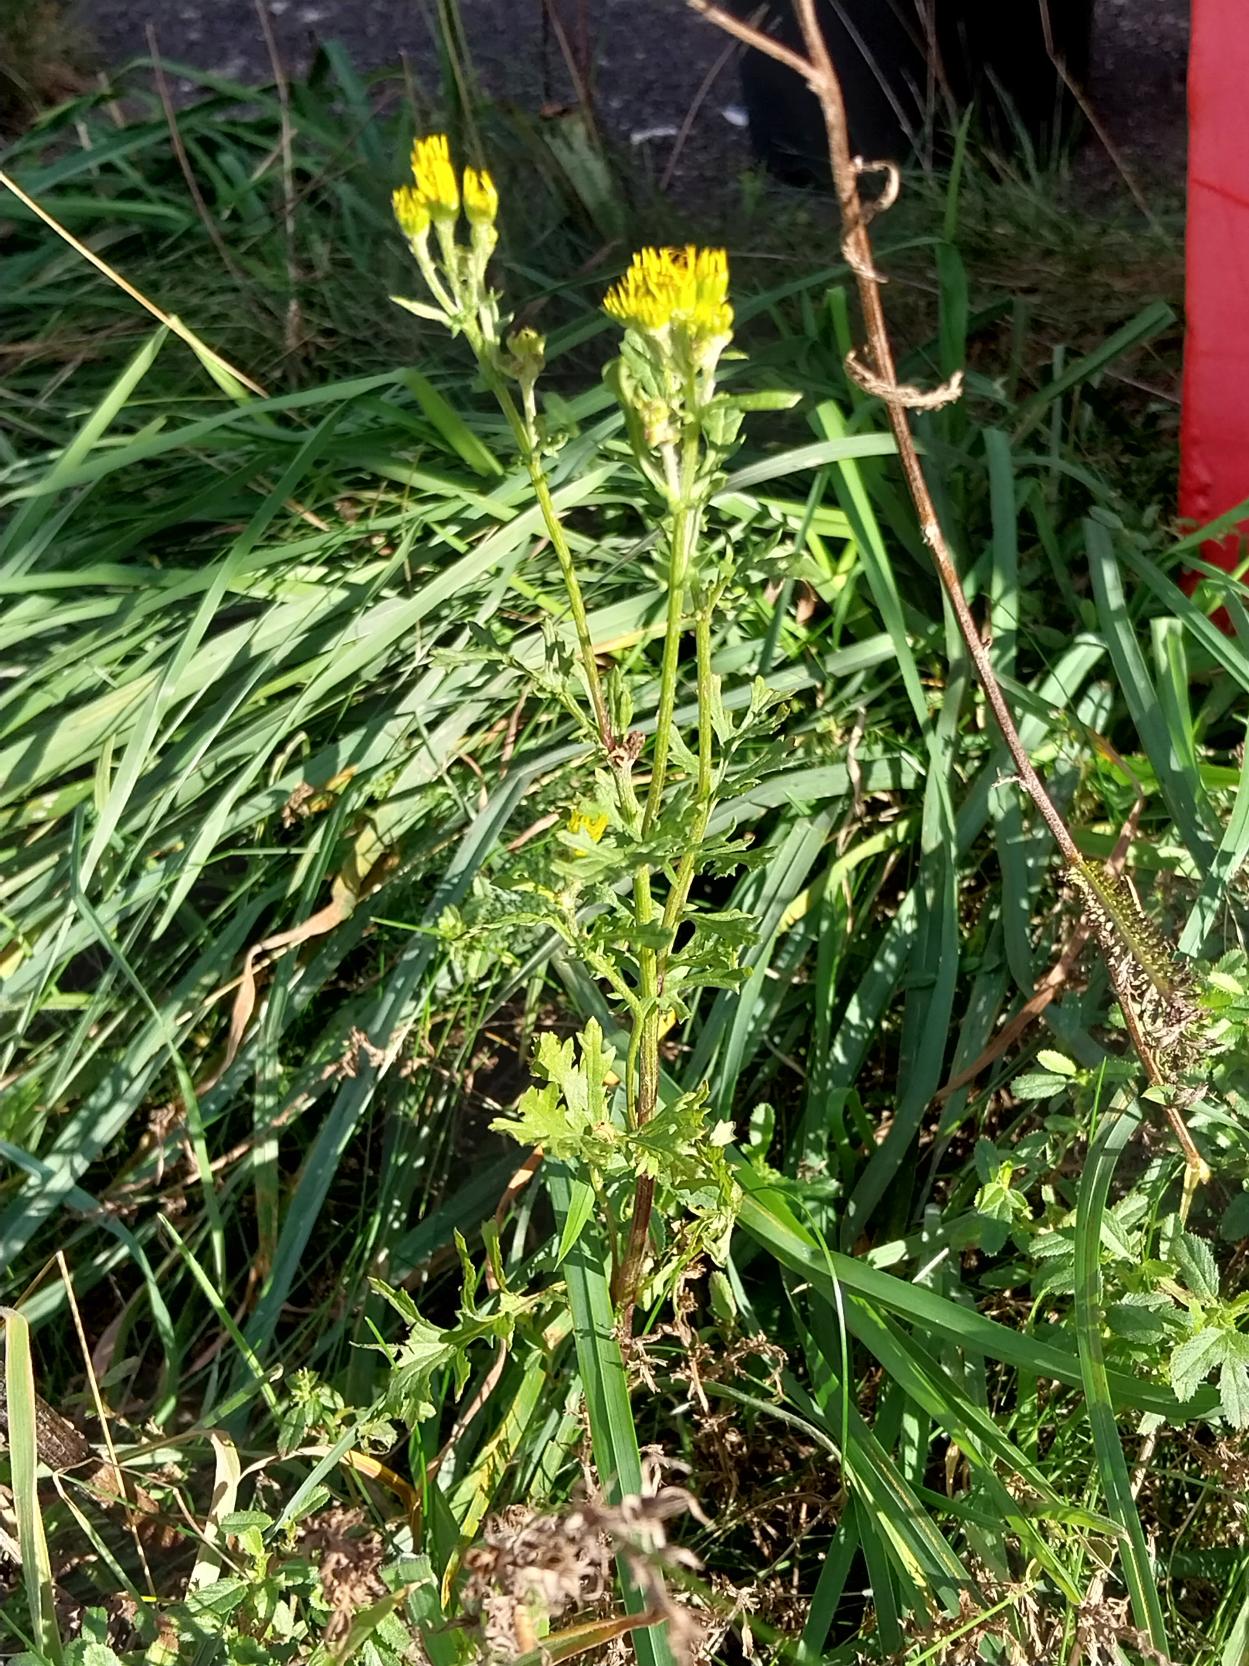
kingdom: Plantae
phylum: Tracheophyta
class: Magnoliopsida
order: Asterales
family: Asteraceae
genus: Jacobaea
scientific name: Jacobaea vulgaris
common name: Eng-brandbæger
